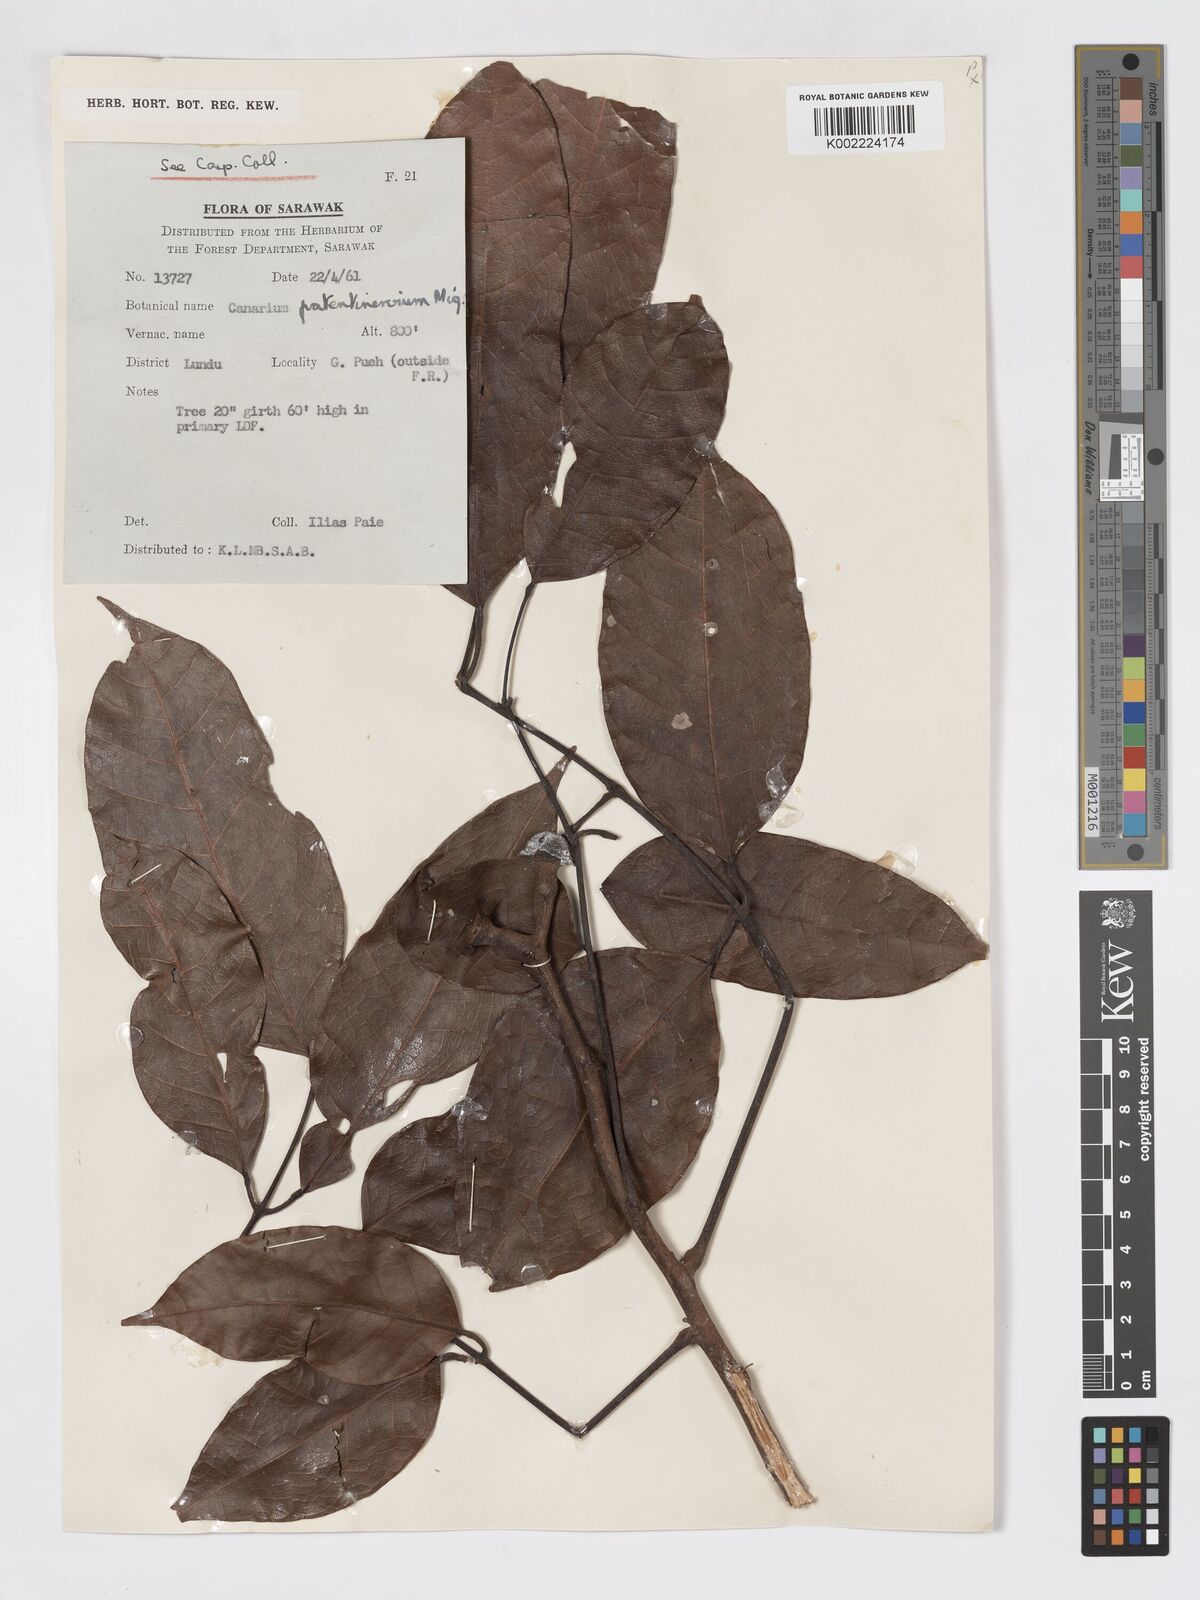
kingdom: Plantae
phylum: Tracheophyta
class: Magnoliopsida
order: Sapindales
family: Burseraceae
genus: Canarium
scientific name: Canarium patentinervium
